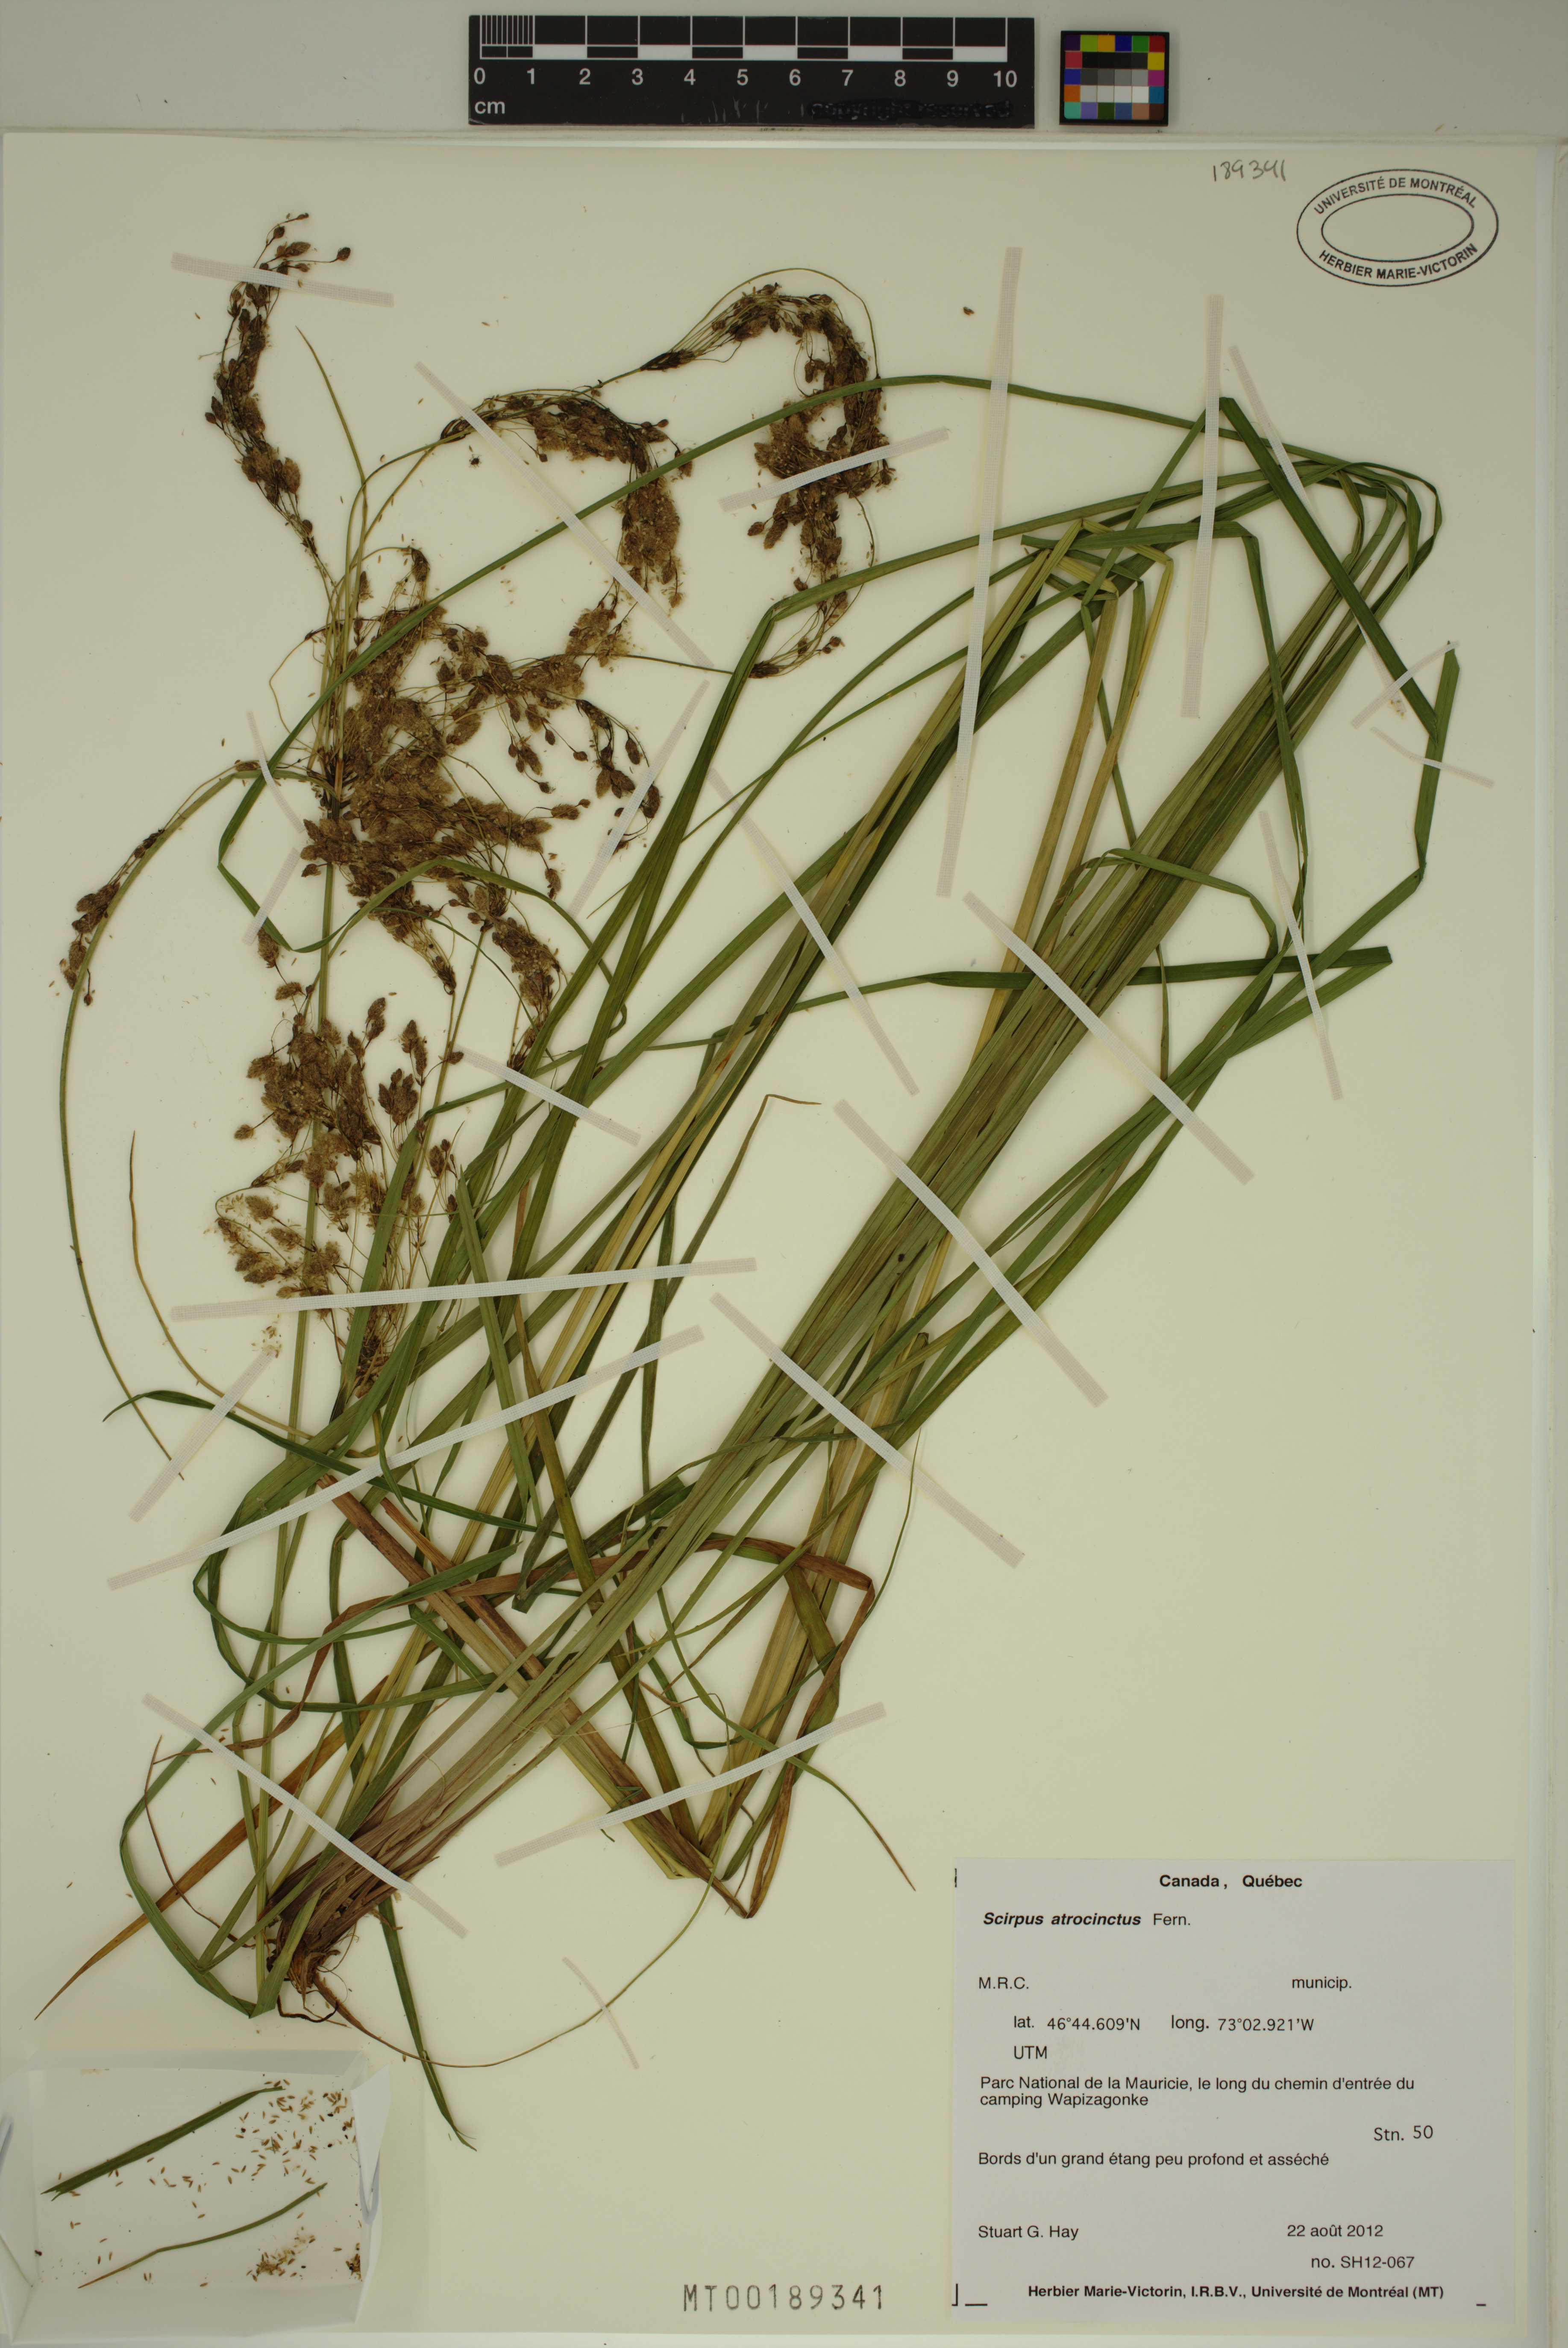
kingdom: Plantae
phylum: Tracheophyta
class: Liliopsida
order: Poales
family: Cyperaceae
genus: Scirpus
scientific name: Scirpus atrocinctus
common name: Black-girdled bulrush
